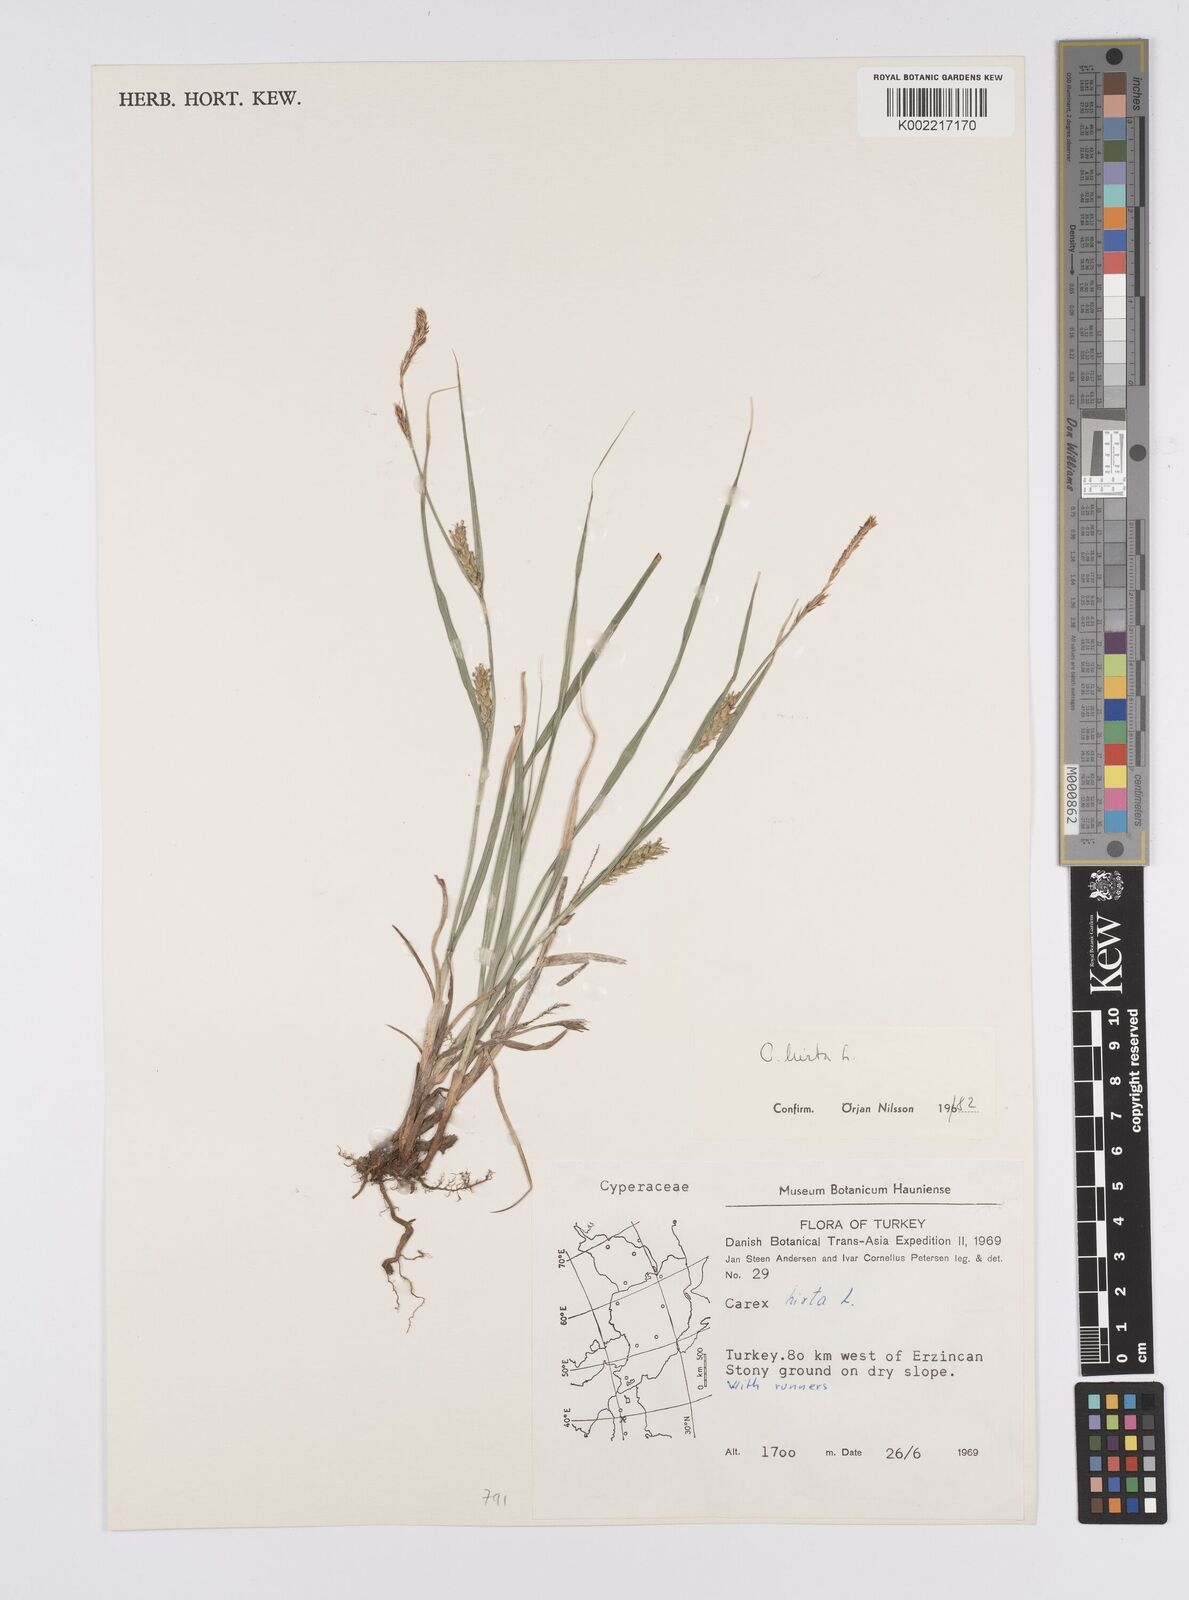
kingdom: Plantae
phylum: Tracheophyta
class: Liliopsida
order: Poales
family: Cyperaceae
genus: Carex
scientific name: Carex hirta
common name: Hairy sedge
